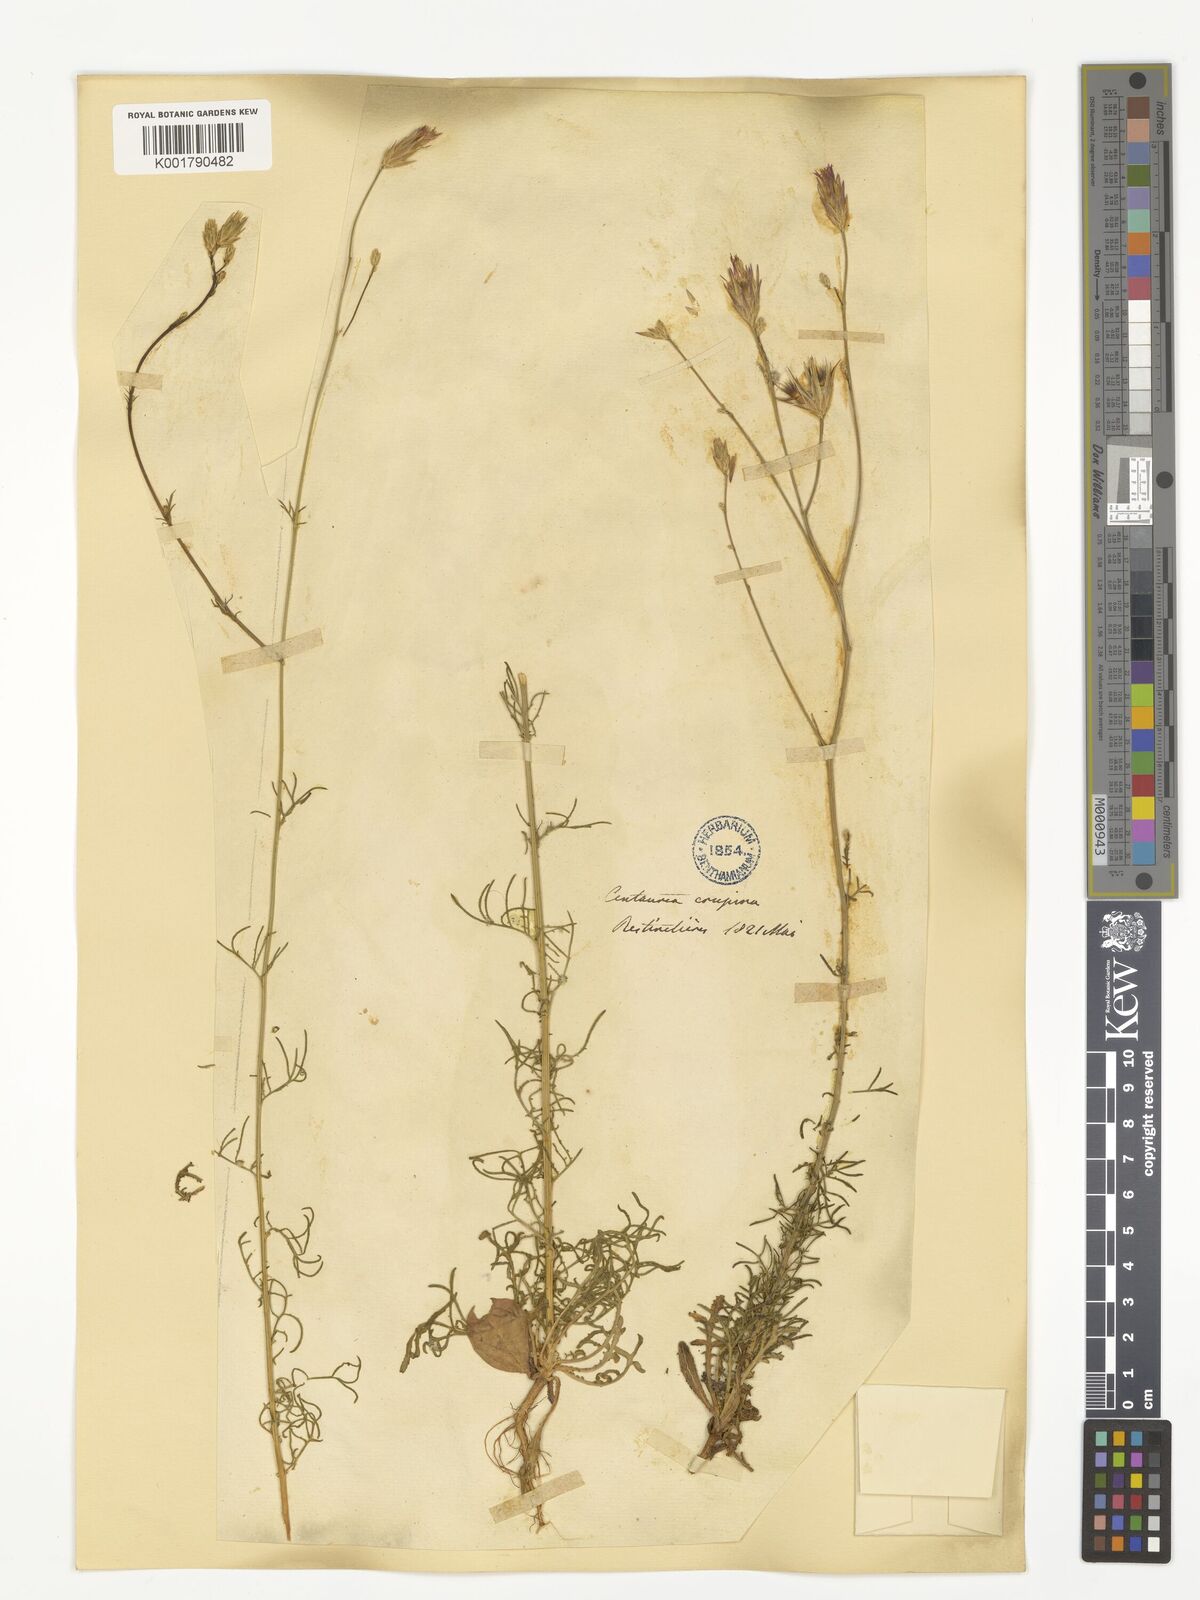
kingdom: Plantae
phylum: Tracheophyta
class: Magnoliopsida
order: Asterales
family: Asteraceae
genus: Crupina
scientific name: Crupina vulgaris
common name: Common crupina
